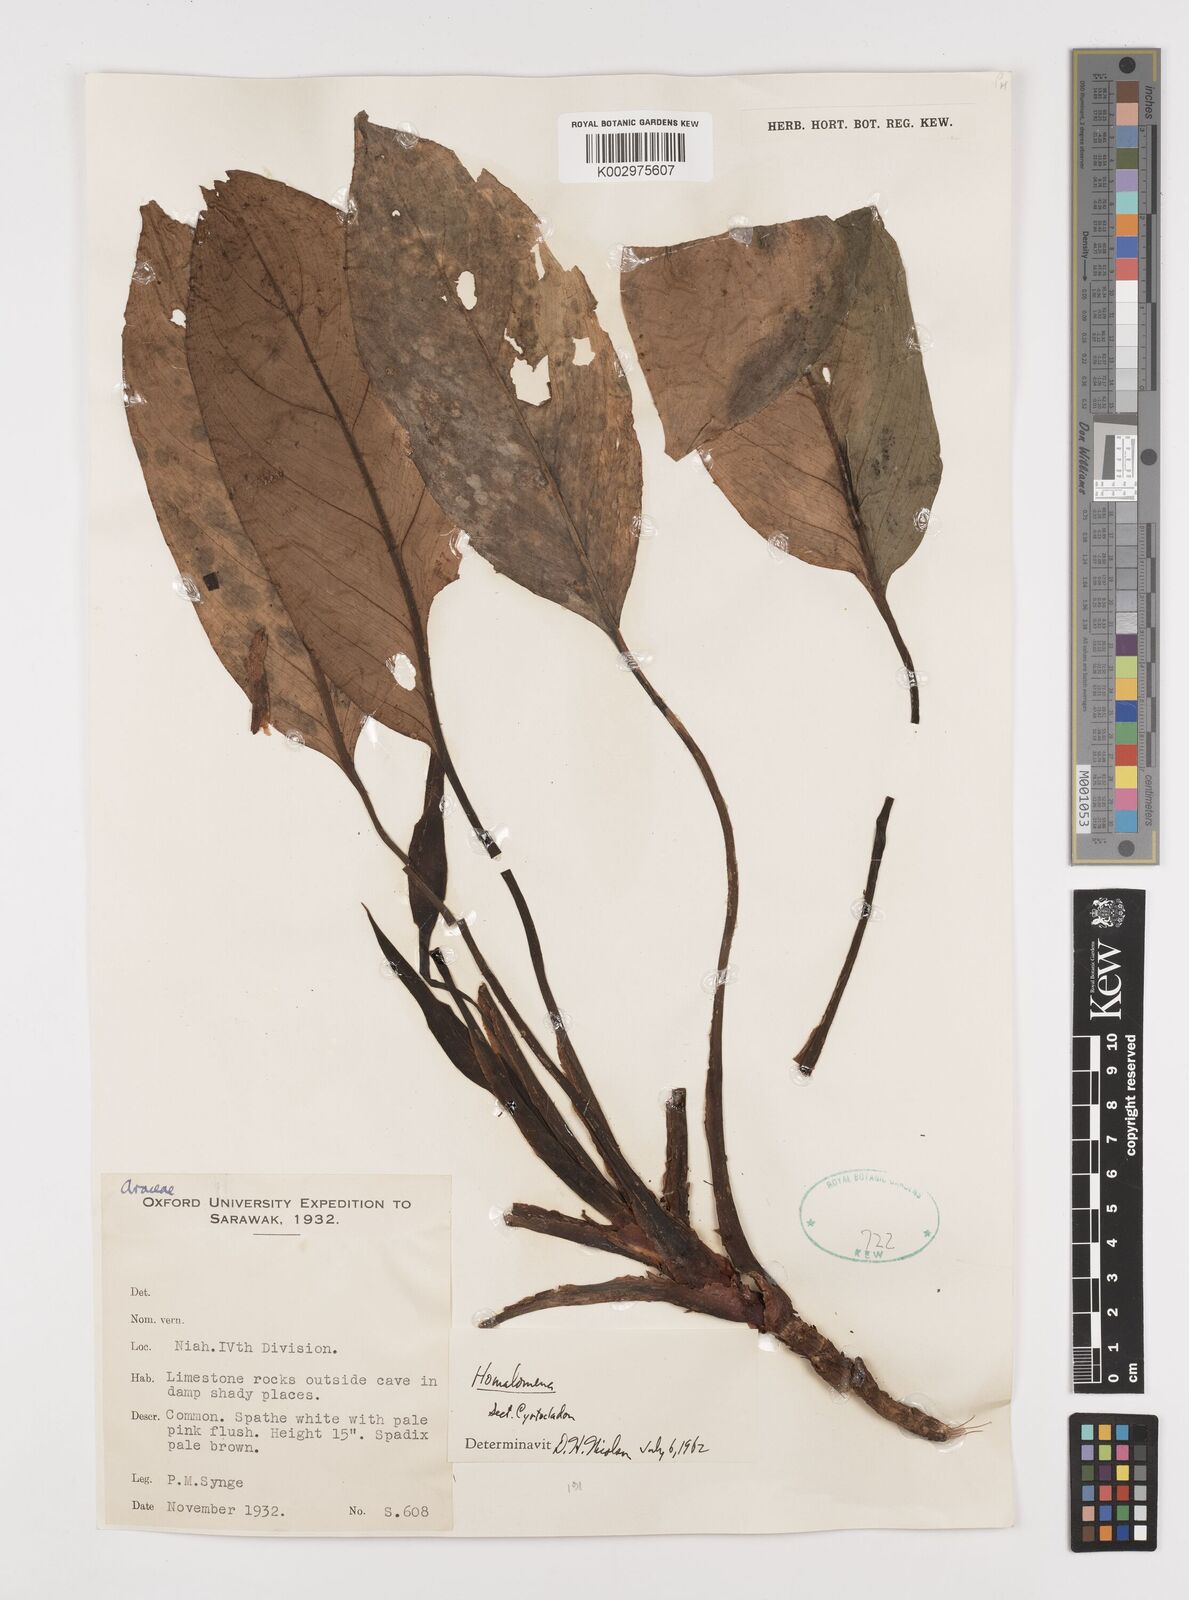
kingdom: Plantae
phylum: Tracheophyta
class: Liliopsida
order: Alismatales
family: Araceae
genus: Homalomena
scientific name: Homalomena
